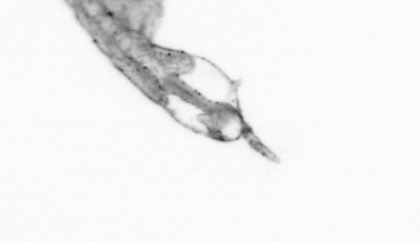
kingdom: Animalia
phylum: Arthropoda
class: Copepoda
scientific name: Copepoda
